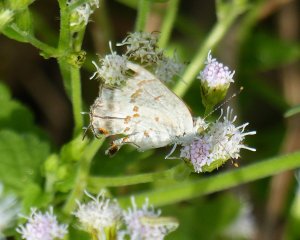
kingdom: Animalia
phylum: Arthropoda
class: Insecta
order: Lepidoptera
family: Lycaenidae
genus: Ministrymon
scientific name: Ministrymon clytie
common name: Clytie Ministreak
